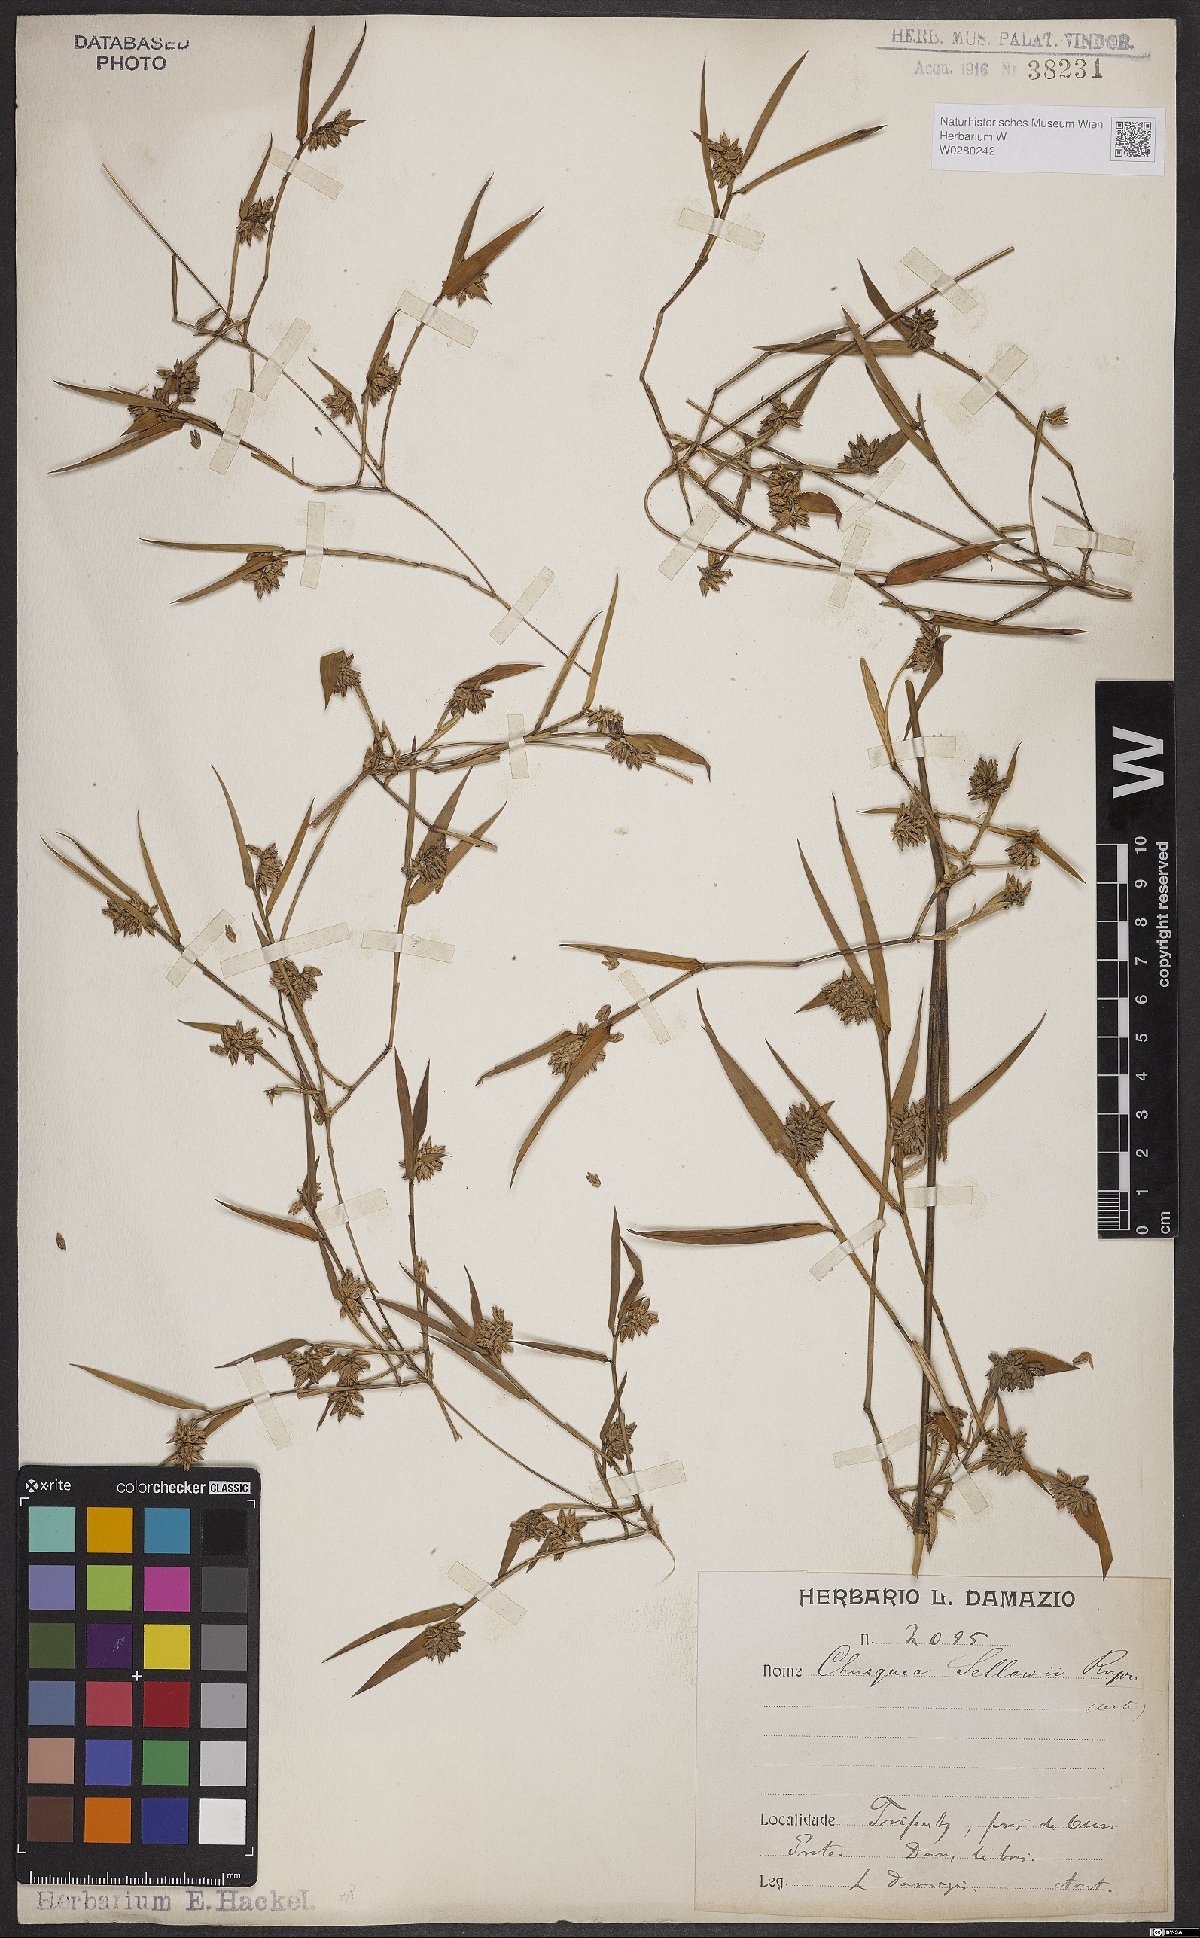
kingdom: Plantae
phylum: Tracheophyta
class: Liliopsida
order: Poales
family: Poaceae
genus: Chusquea
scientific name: Chusquea sellowii
